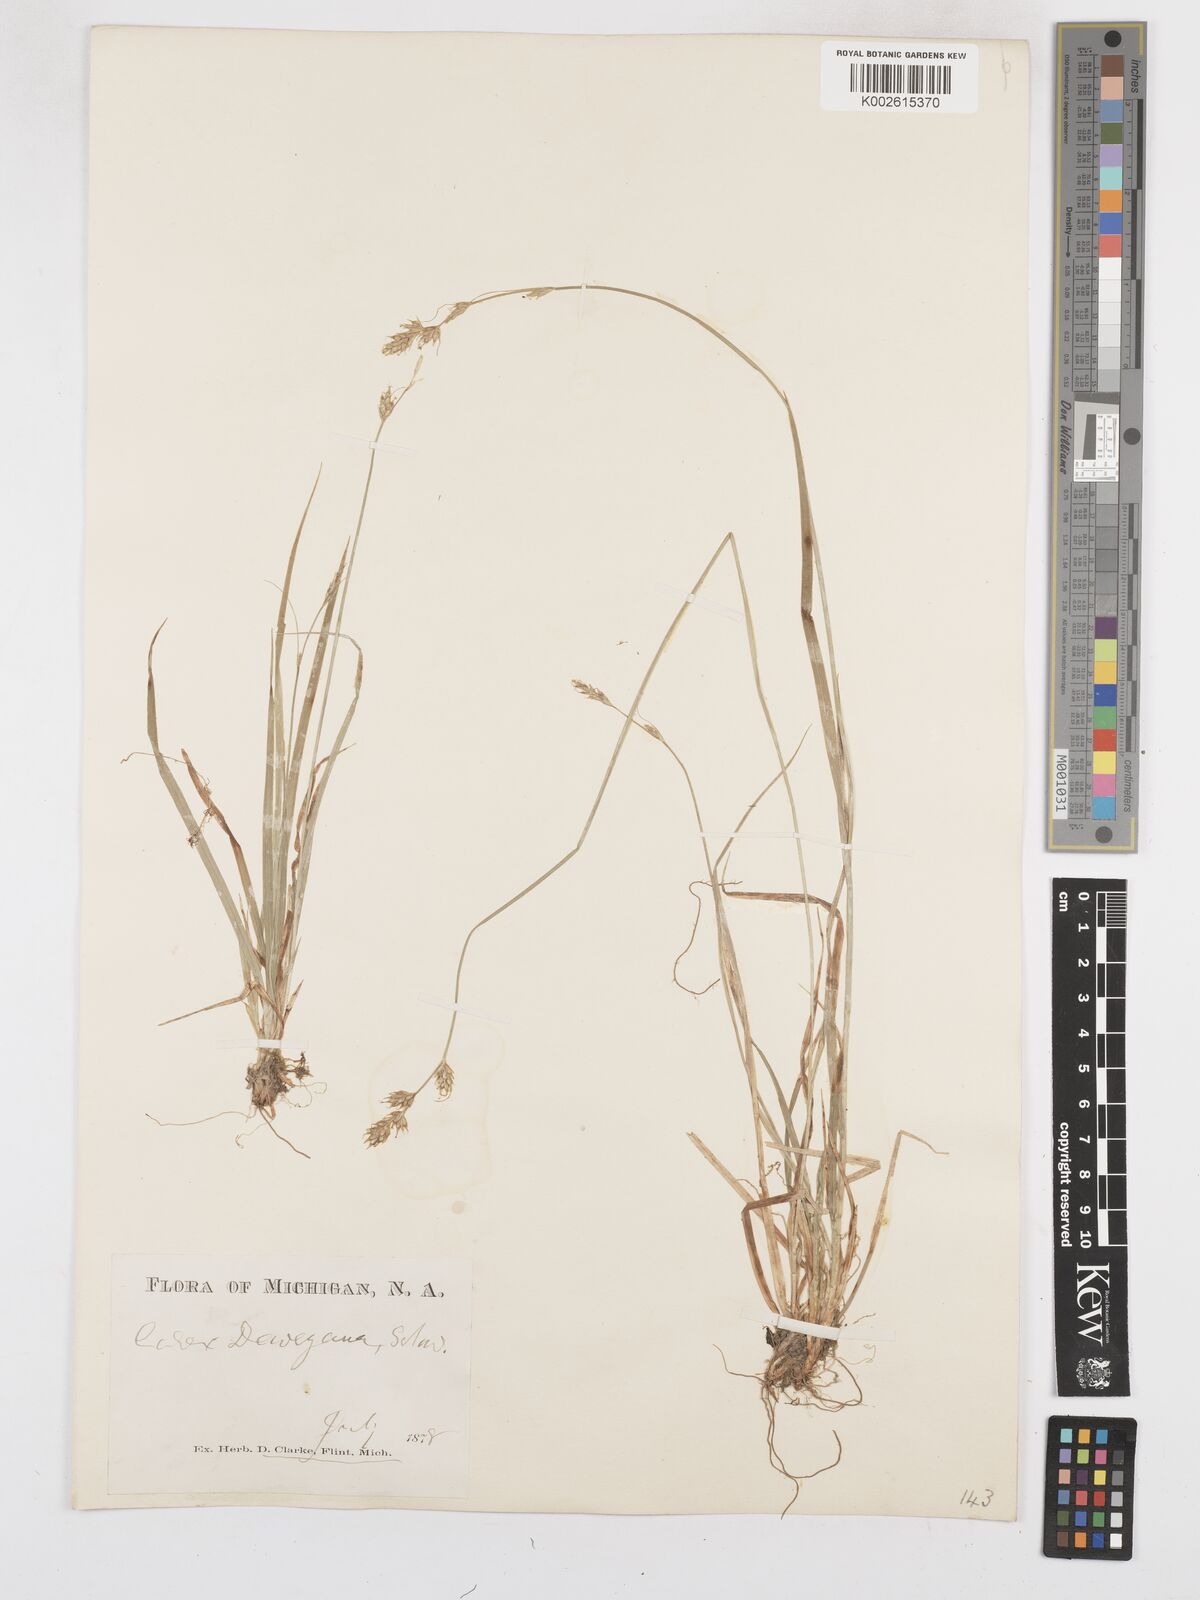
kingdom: Plantae
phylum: Tracheophyta
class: Liliopsida
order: Poales
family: Cyperaceae
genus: Carex
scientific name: Carex deweyana
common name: Dewey's sedge
